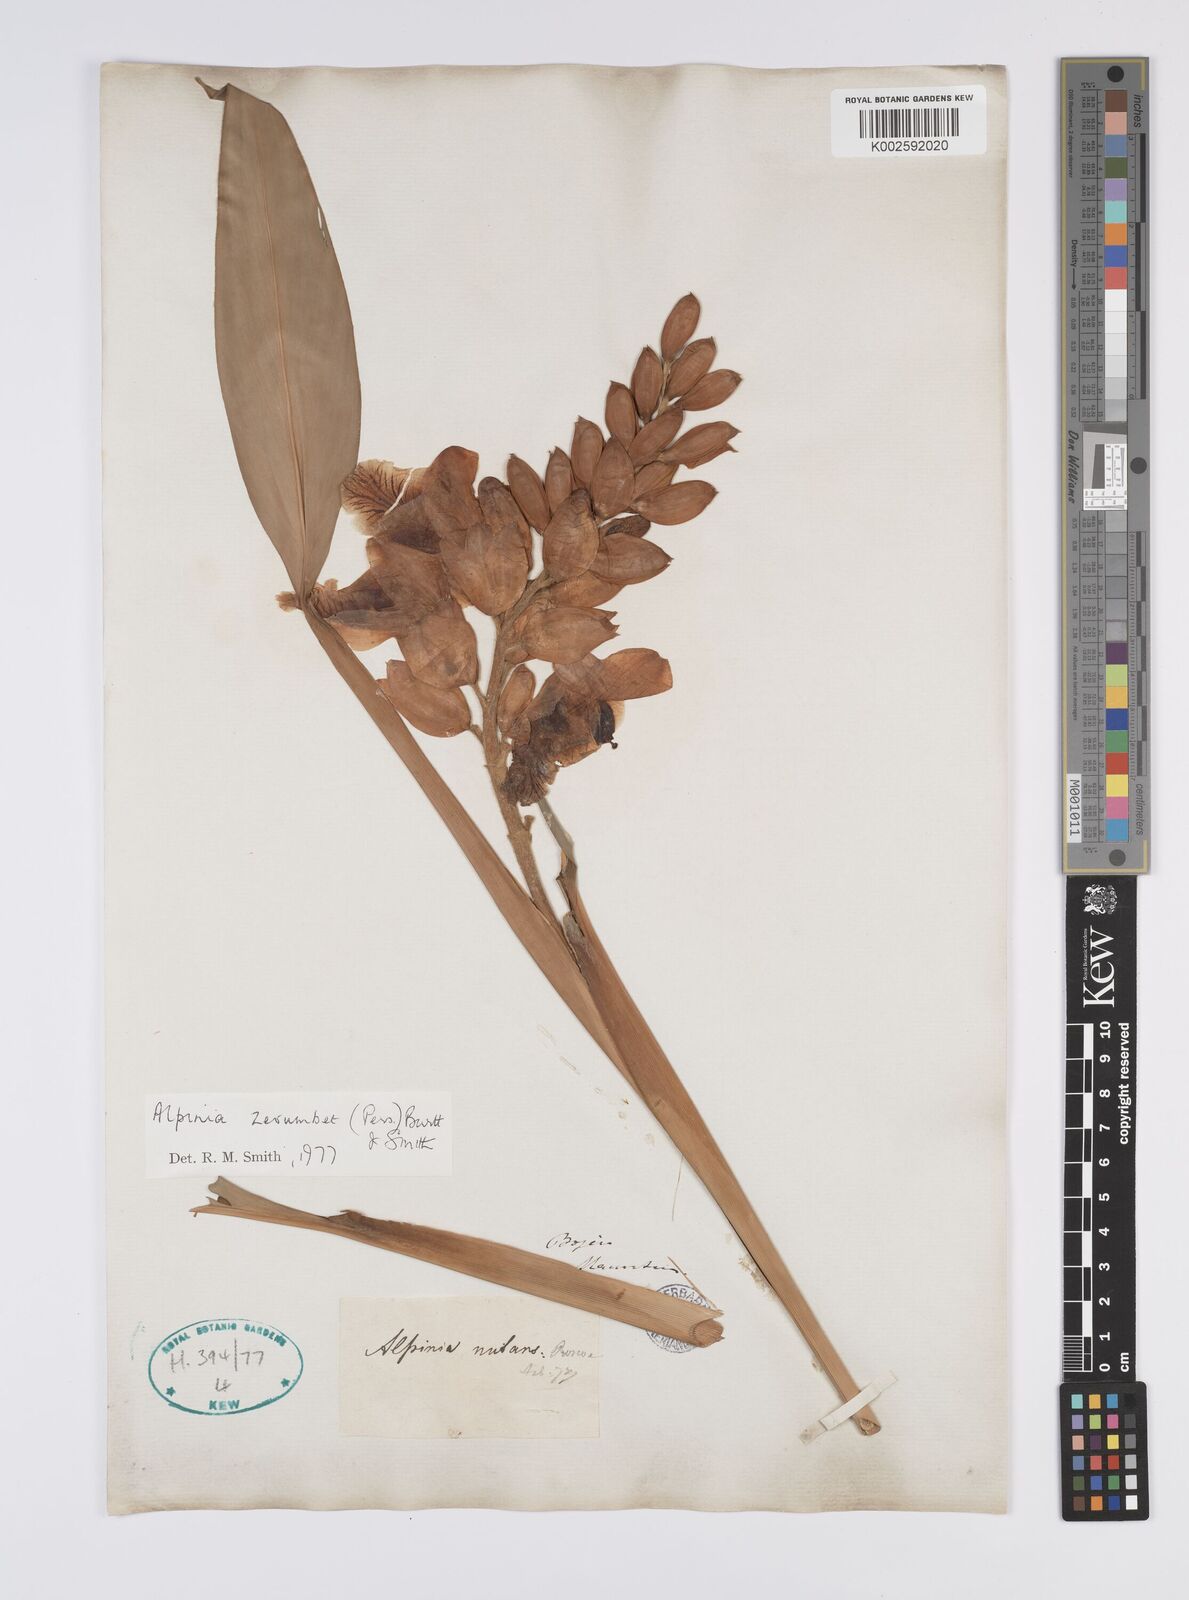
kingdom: Plantae
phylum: Tracheophyta
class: Liliopsida
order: Zingiberales
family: Zingiberaceae
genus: Alpinia
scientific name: Alpinia zerumbet
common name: Shellplant
